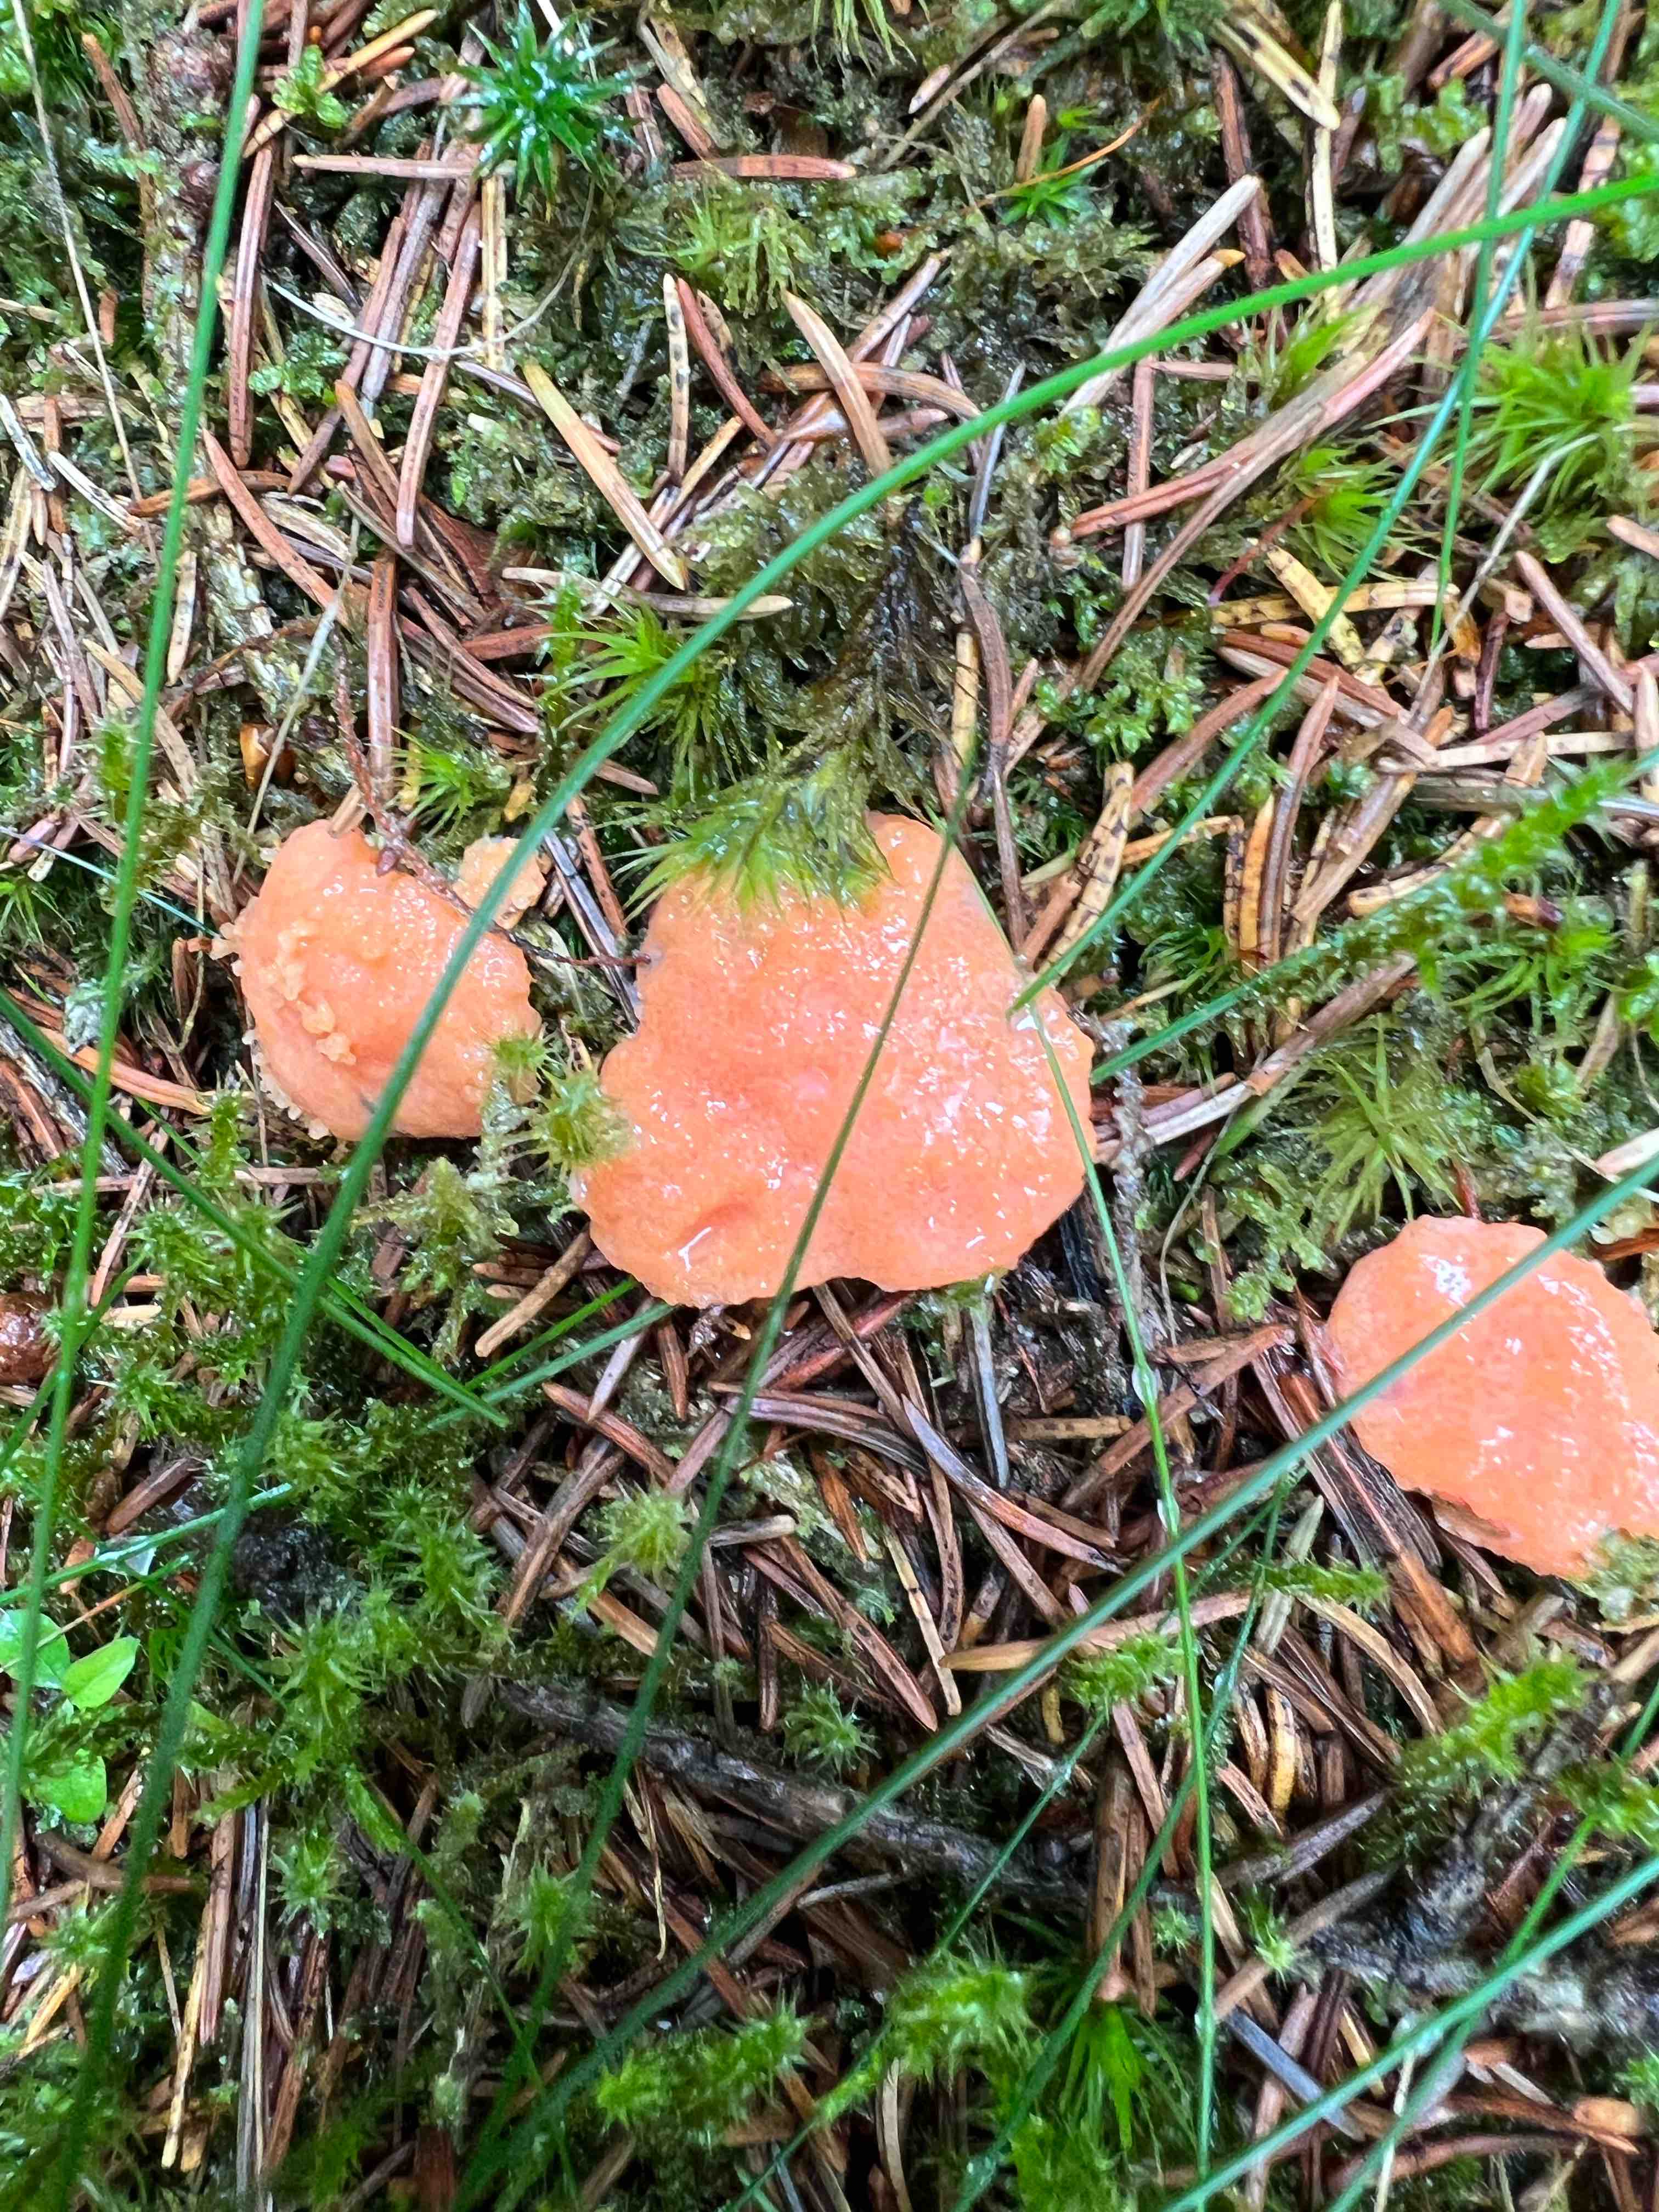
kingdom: Protozoa
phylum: Mycetozoa
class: Myxomycetes
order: Cribrariales
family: Tubiferaceae
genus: Tubifera
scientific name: Tubifera ferruginosa
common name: kanel-støvrør
